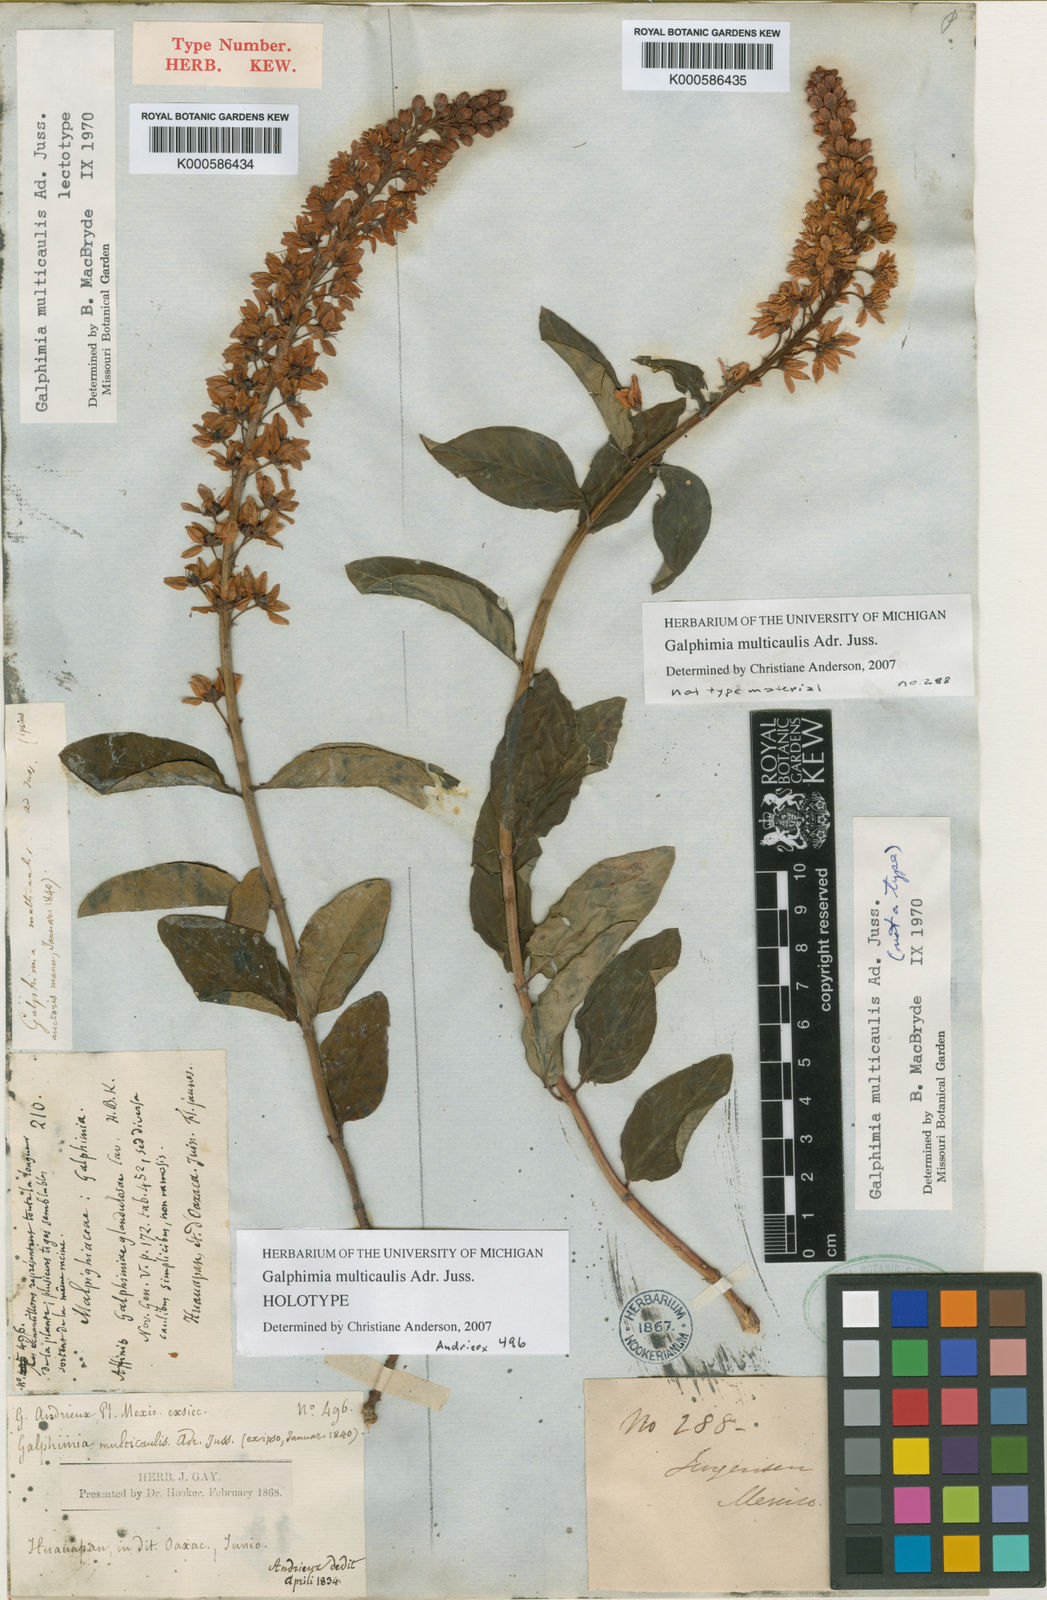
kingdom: Plantae
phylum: Tracheophyta
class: Magnoliopsida
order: Malpighiales
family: Malpighiaceae
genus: Galphimia
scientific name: Galphimia multicaulis
